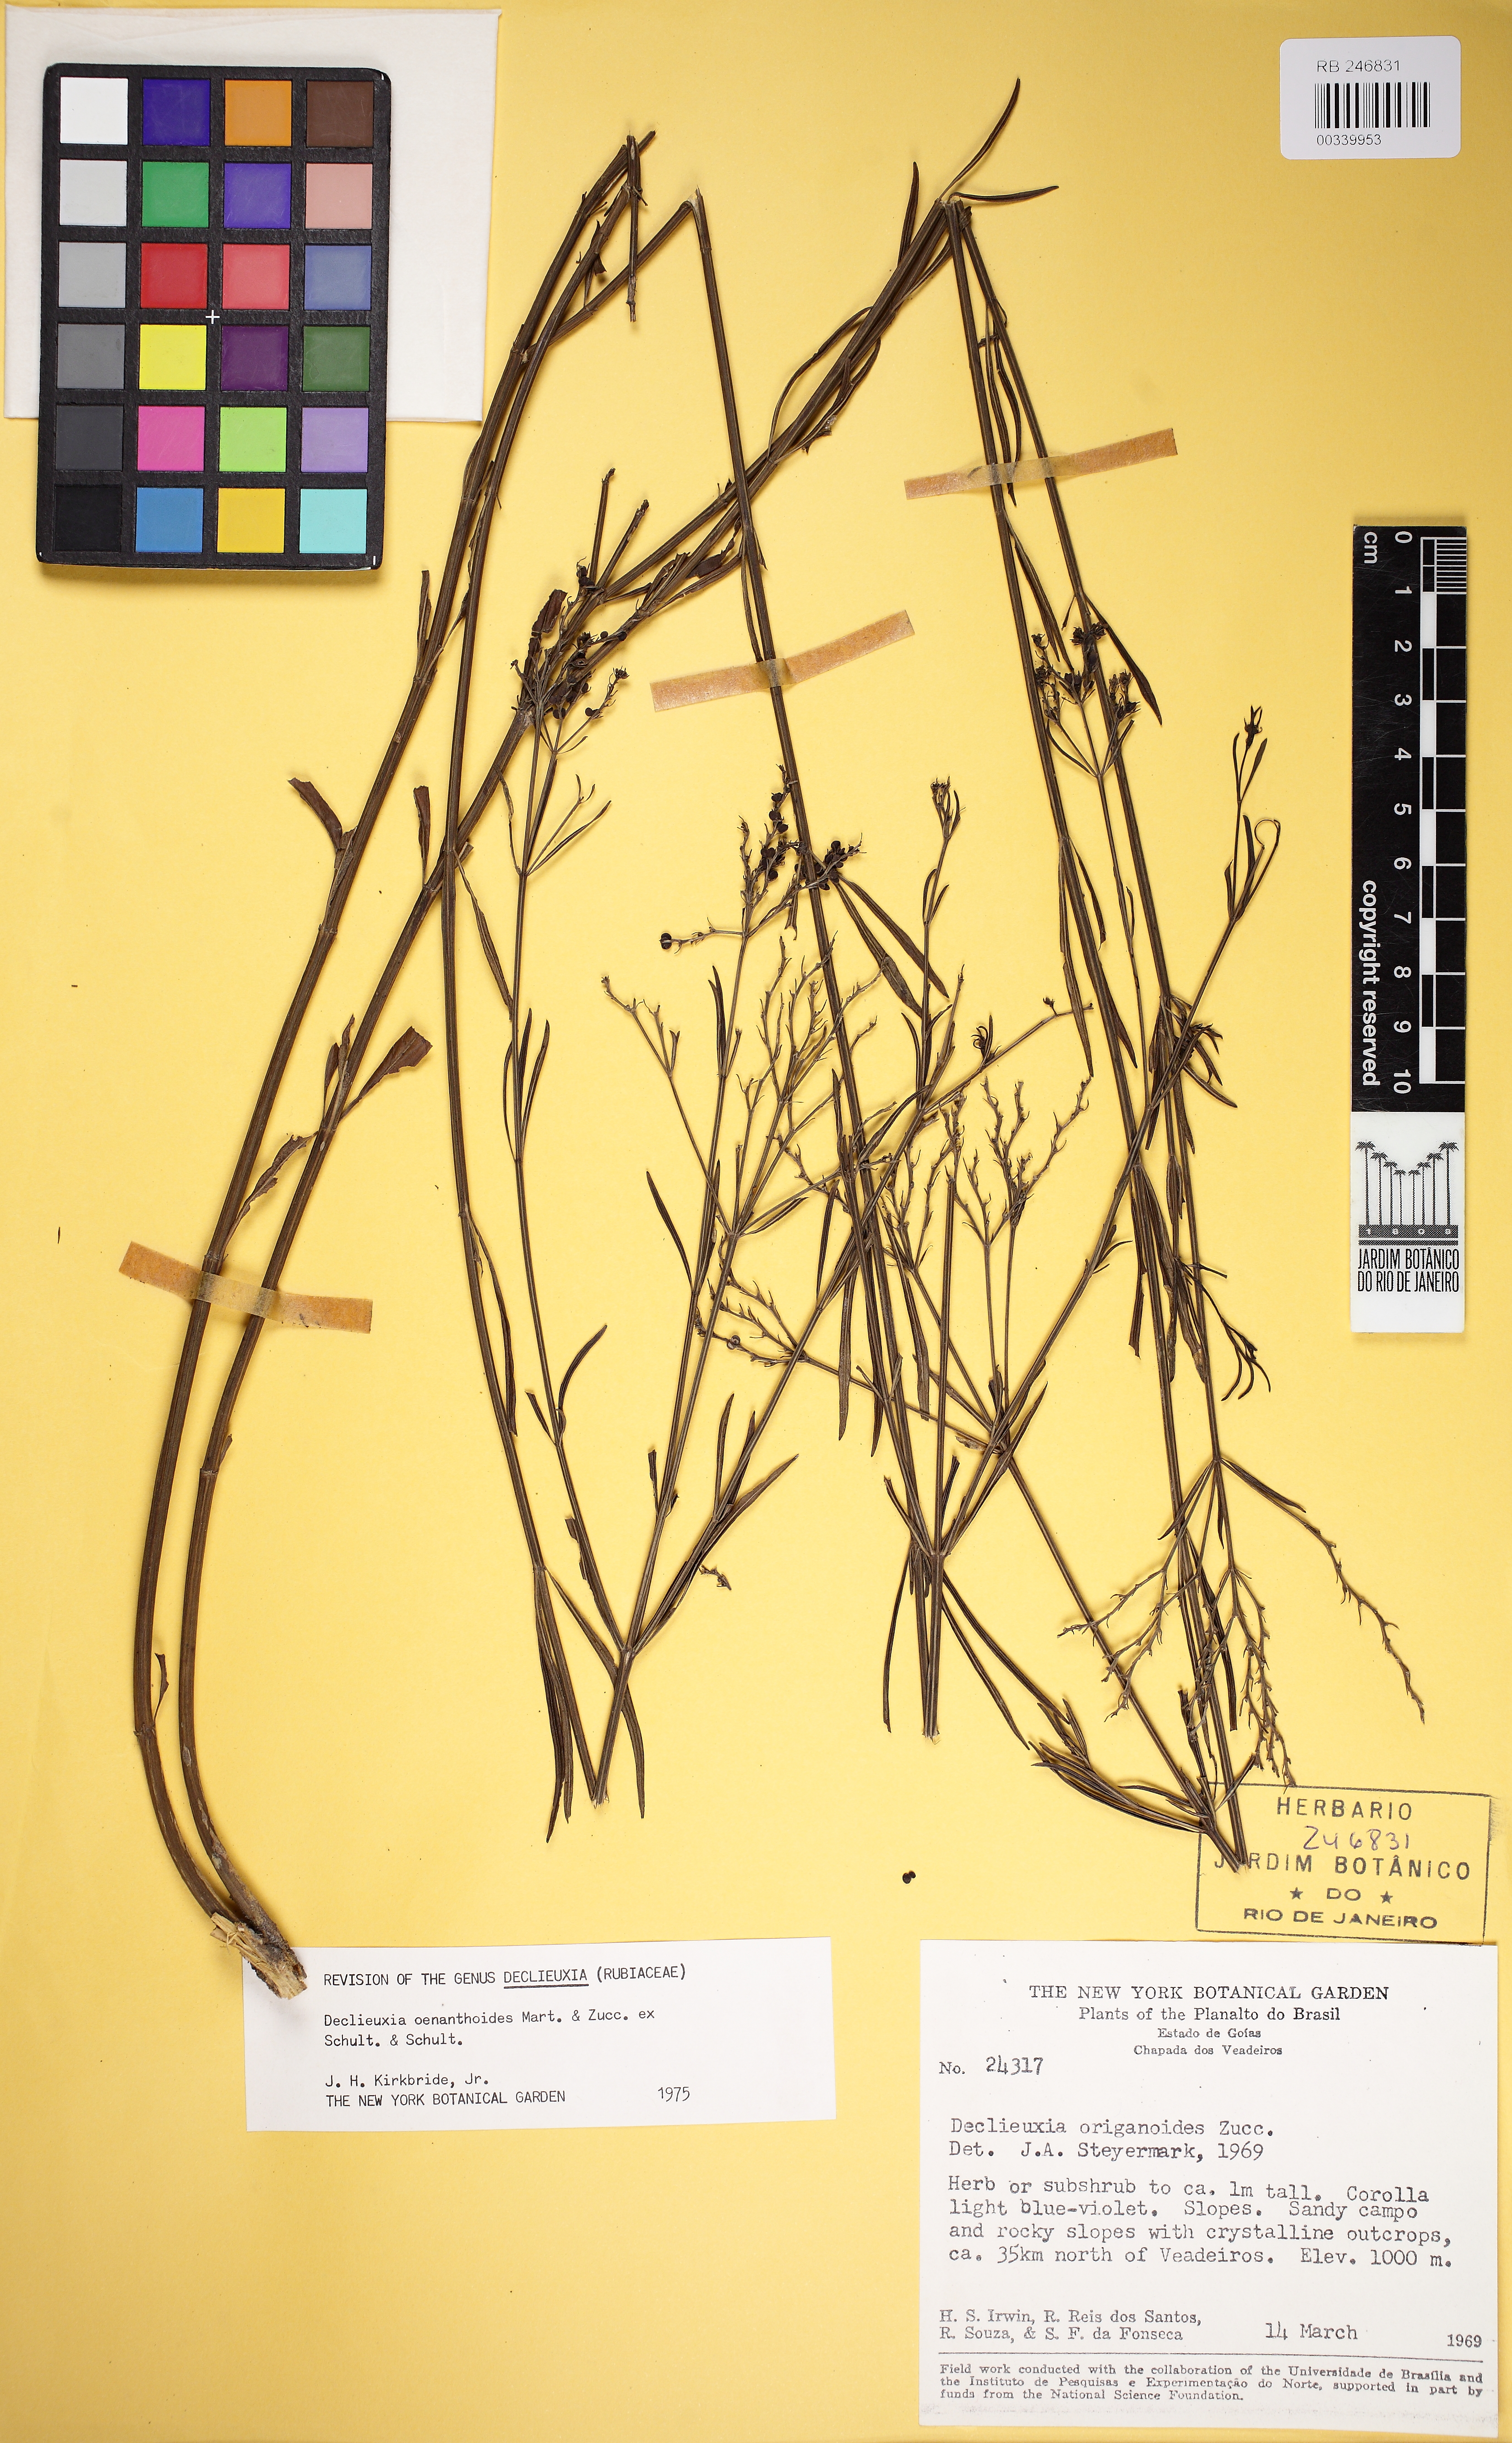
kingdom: Plantae
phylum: Tracheophyta
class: Magnoliopsida
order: Gentianales
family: Rubiaceae
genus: Declieuxia
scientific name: Declieuxia oenanthoides
